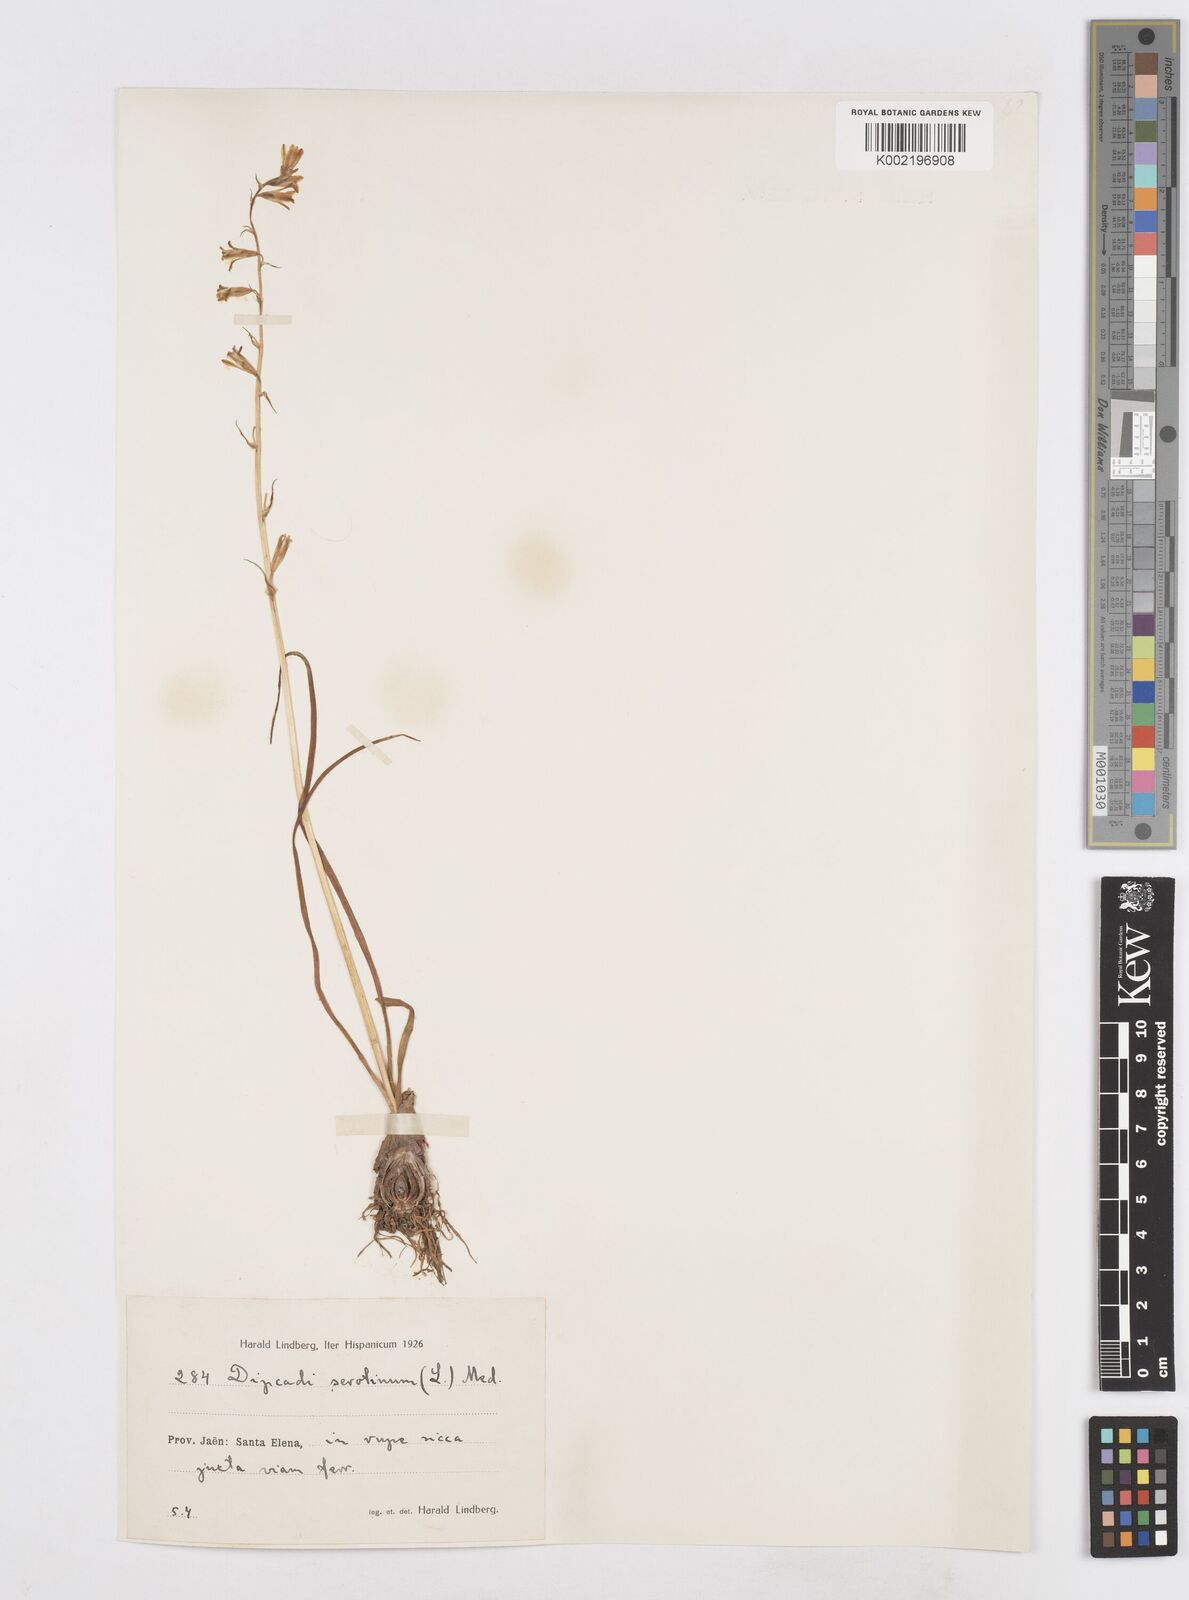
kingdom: Plantae
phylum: Tracheophyta
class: Liliopsida
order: Asparagales
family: Asparagaceae
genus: Dipcadi
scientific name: Dipcadi serotinum
